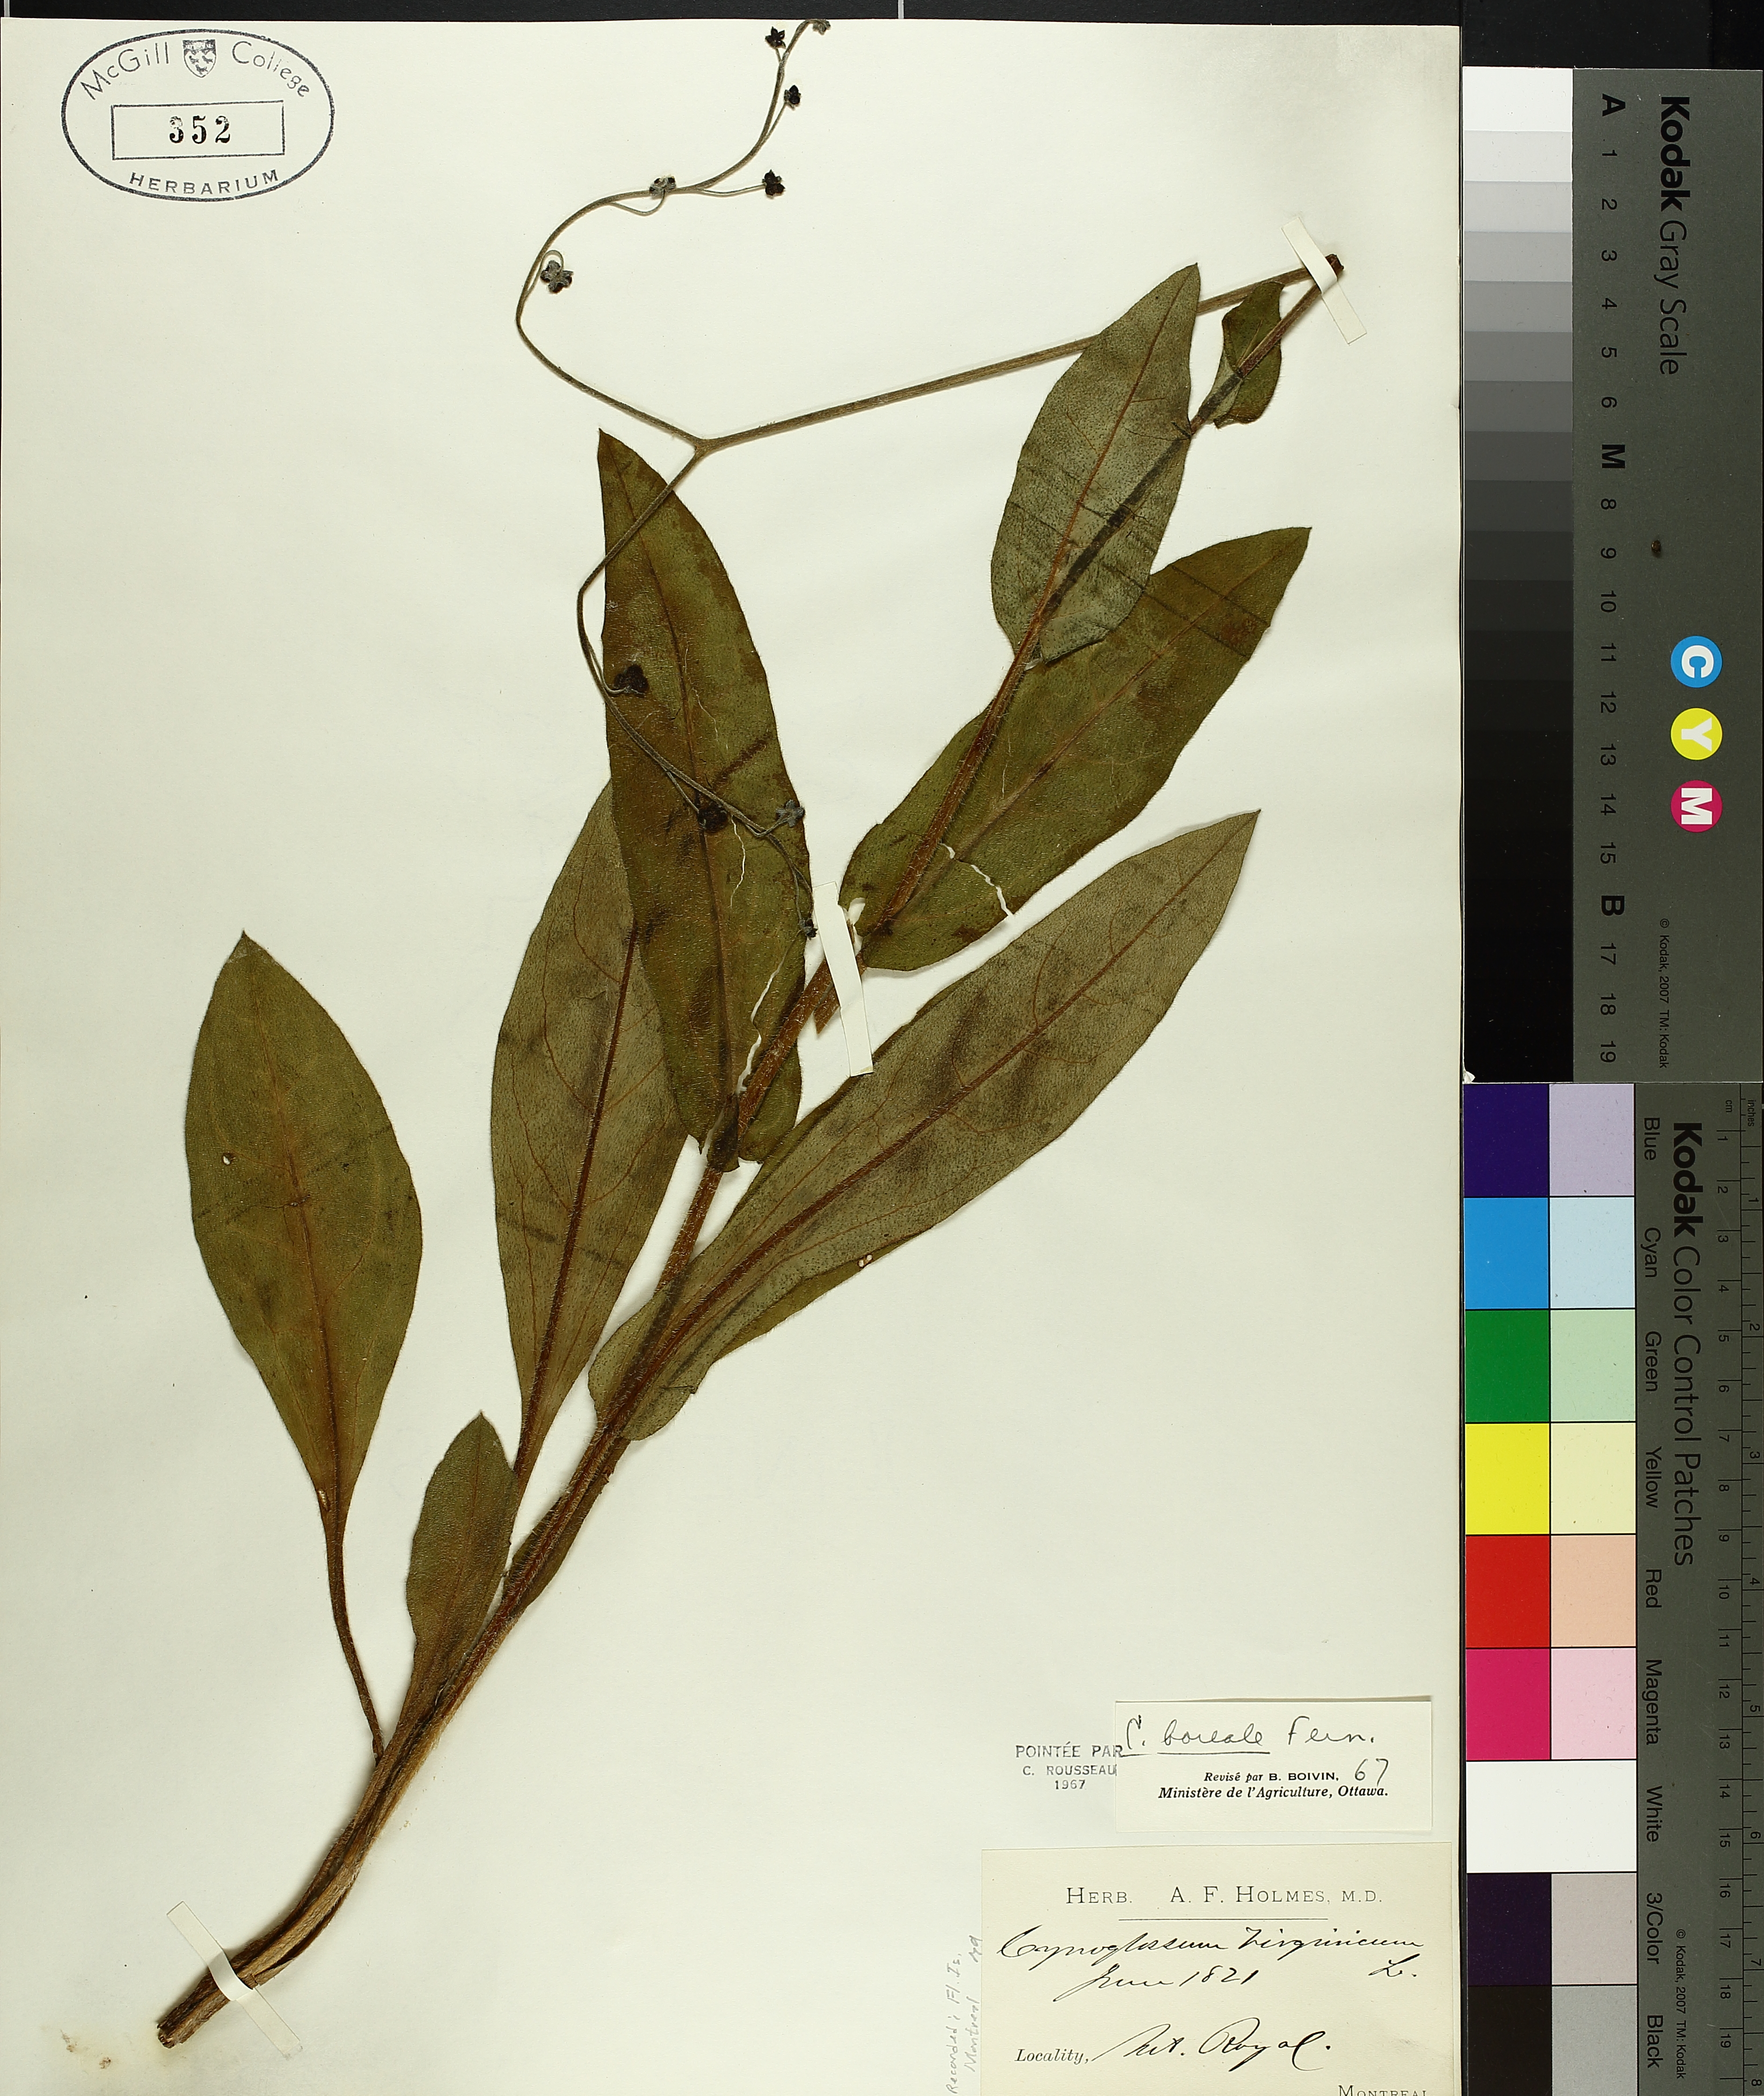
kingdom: Plantae
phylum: Tracheophyta
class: Magnoliopsida
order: Boraginales
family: Boraginaceae
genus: Andersonglossum
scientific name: Andersonglossum boreale
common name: Northern hound's-tongue
